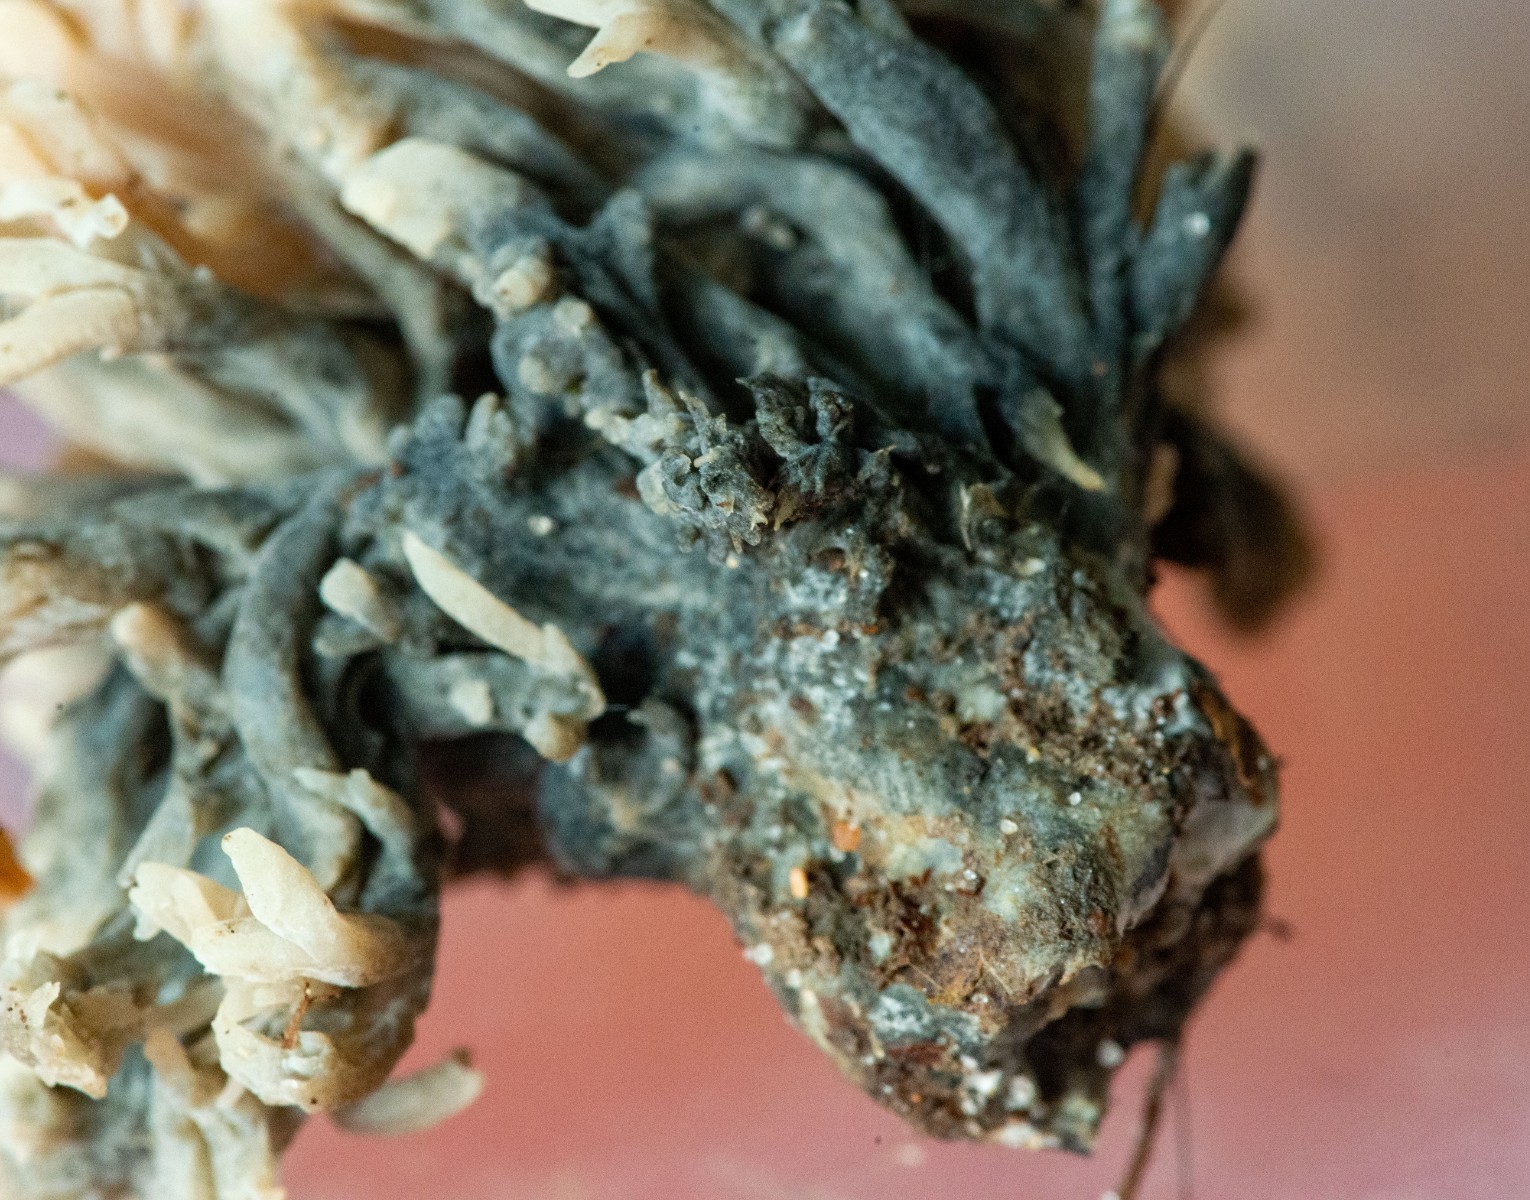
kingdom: Fungi
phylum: Ascomycota
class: Sordariomycetes
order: Sordariales
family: Helminthosphaeriaceae
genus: Helminthosphaeria
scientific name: Helminthosphaeria clavariarum
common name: trold-svampesnyltekerne
